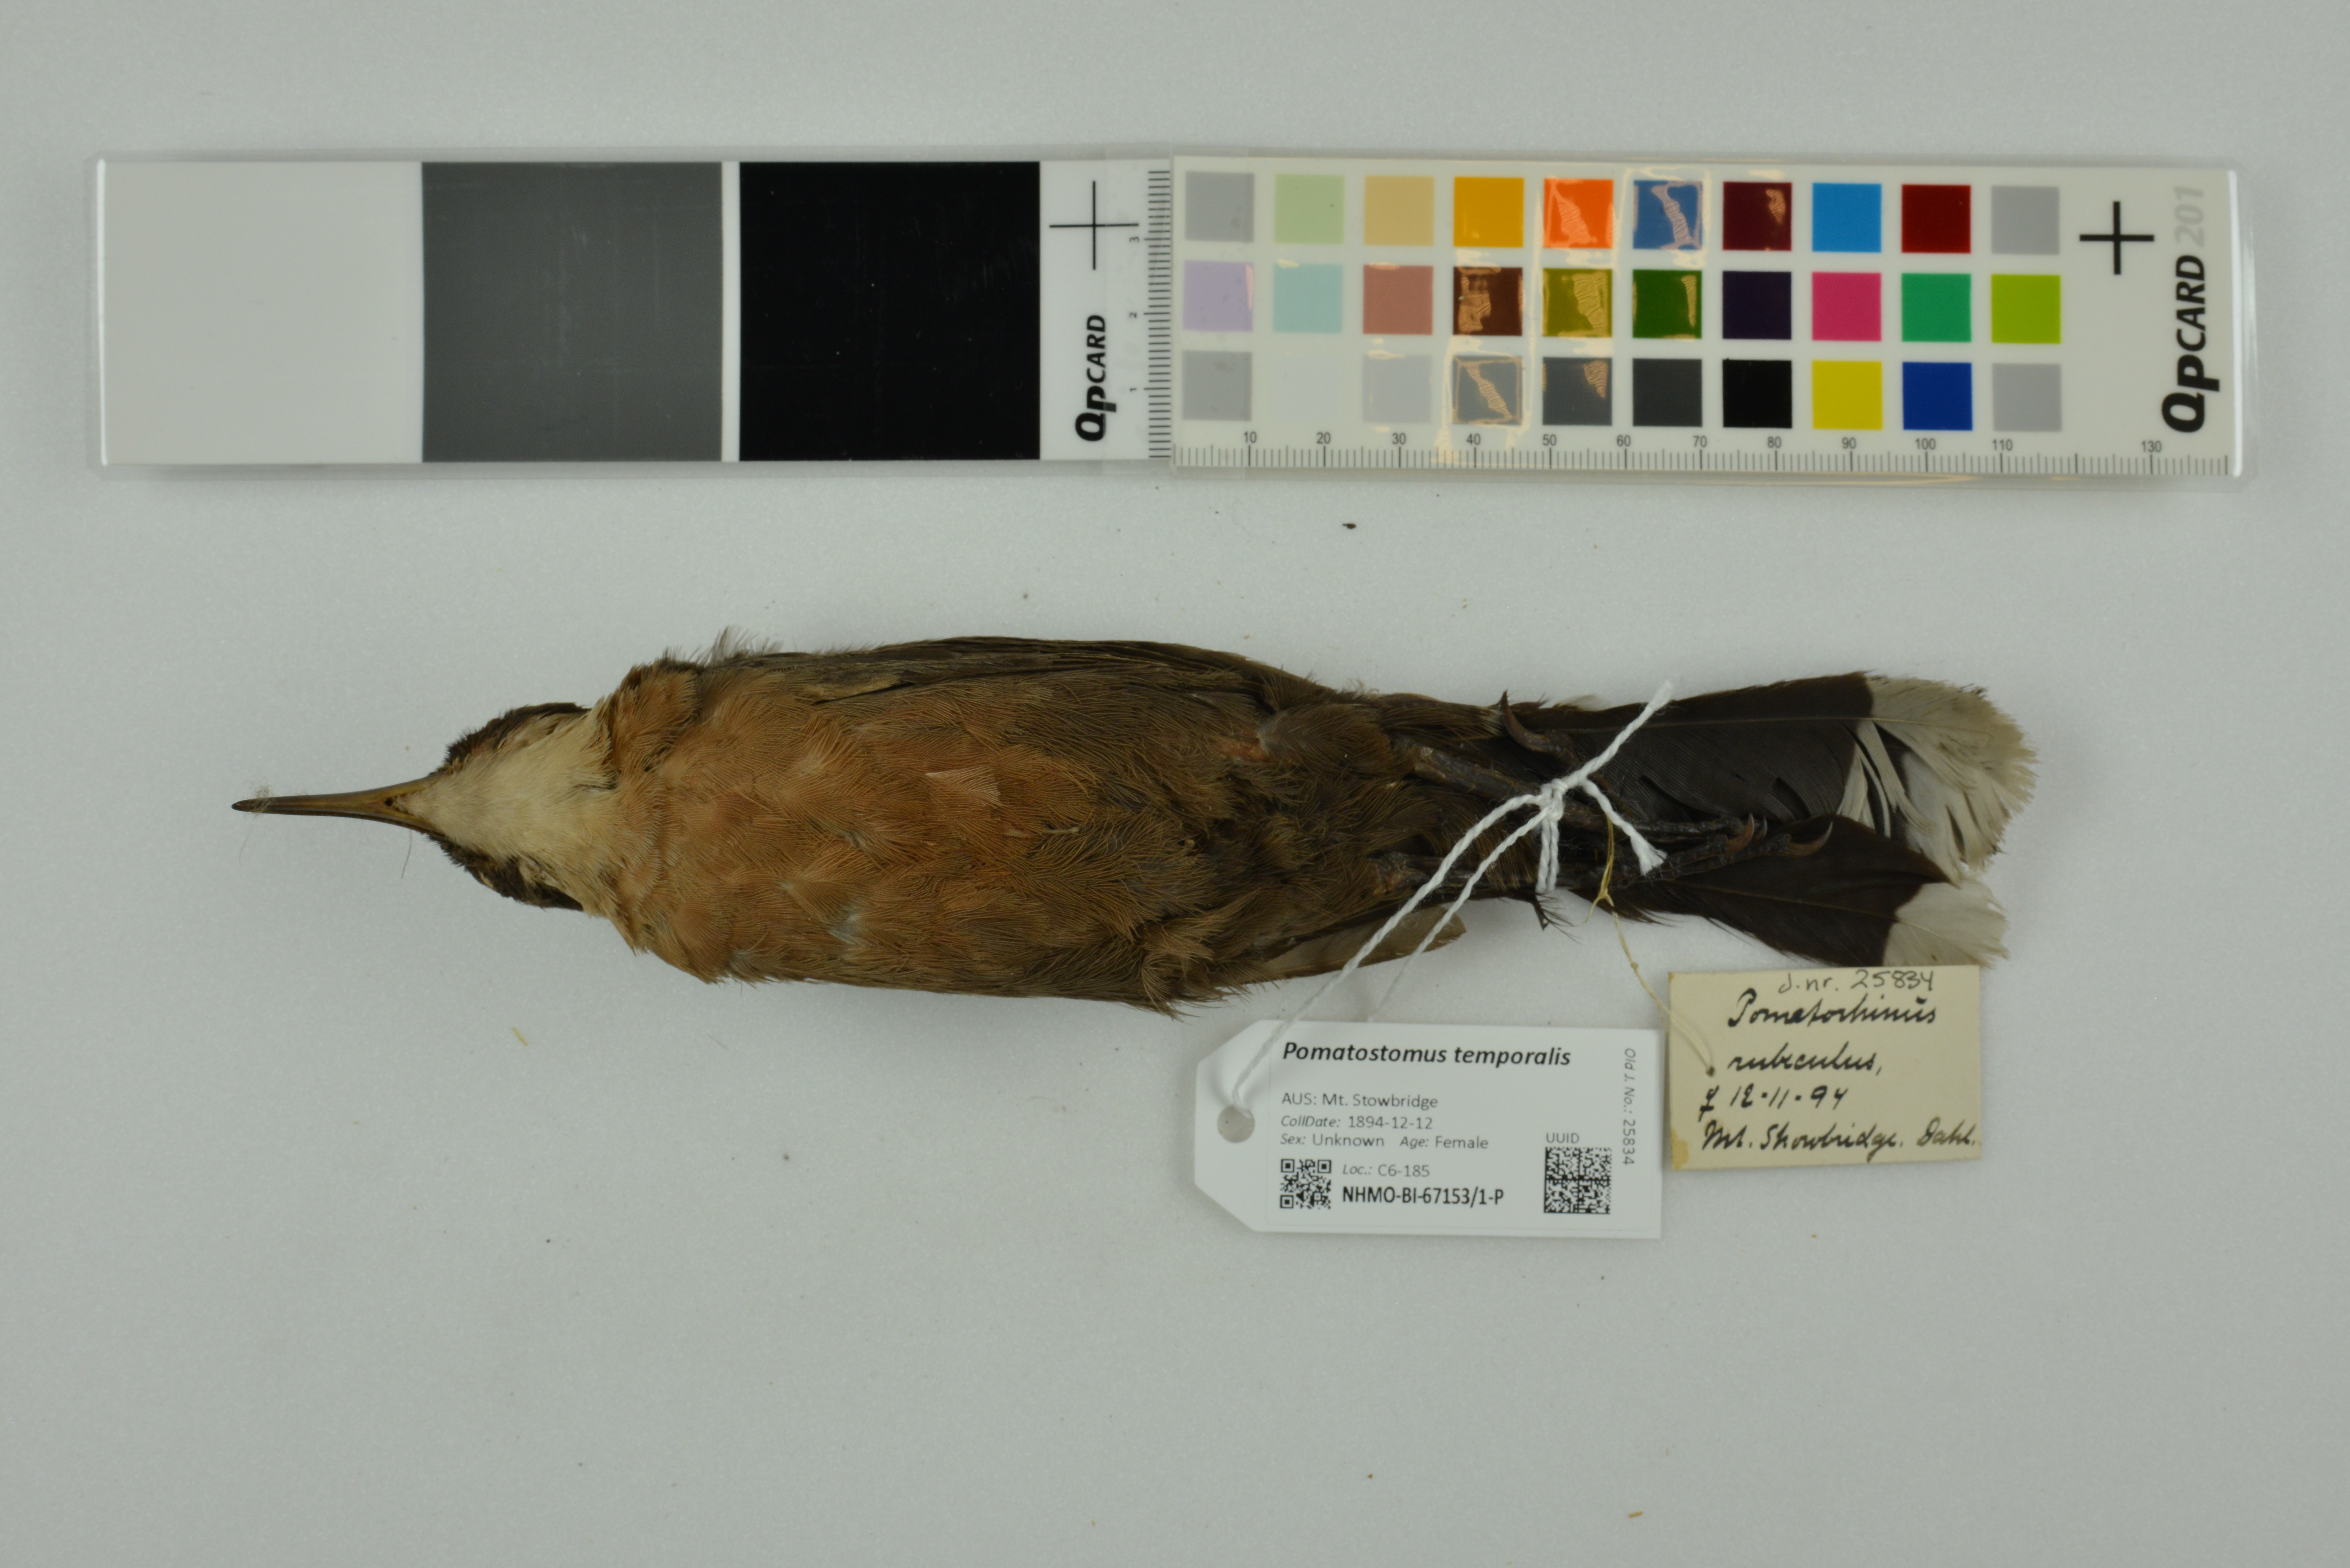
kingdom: Animalia
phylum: Chordata
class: Aves
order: Passeriformes
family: Pomatostomidae
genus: Pomatostomus
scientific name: Pomatostomus temporalis
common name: Grey-crowned babbler
